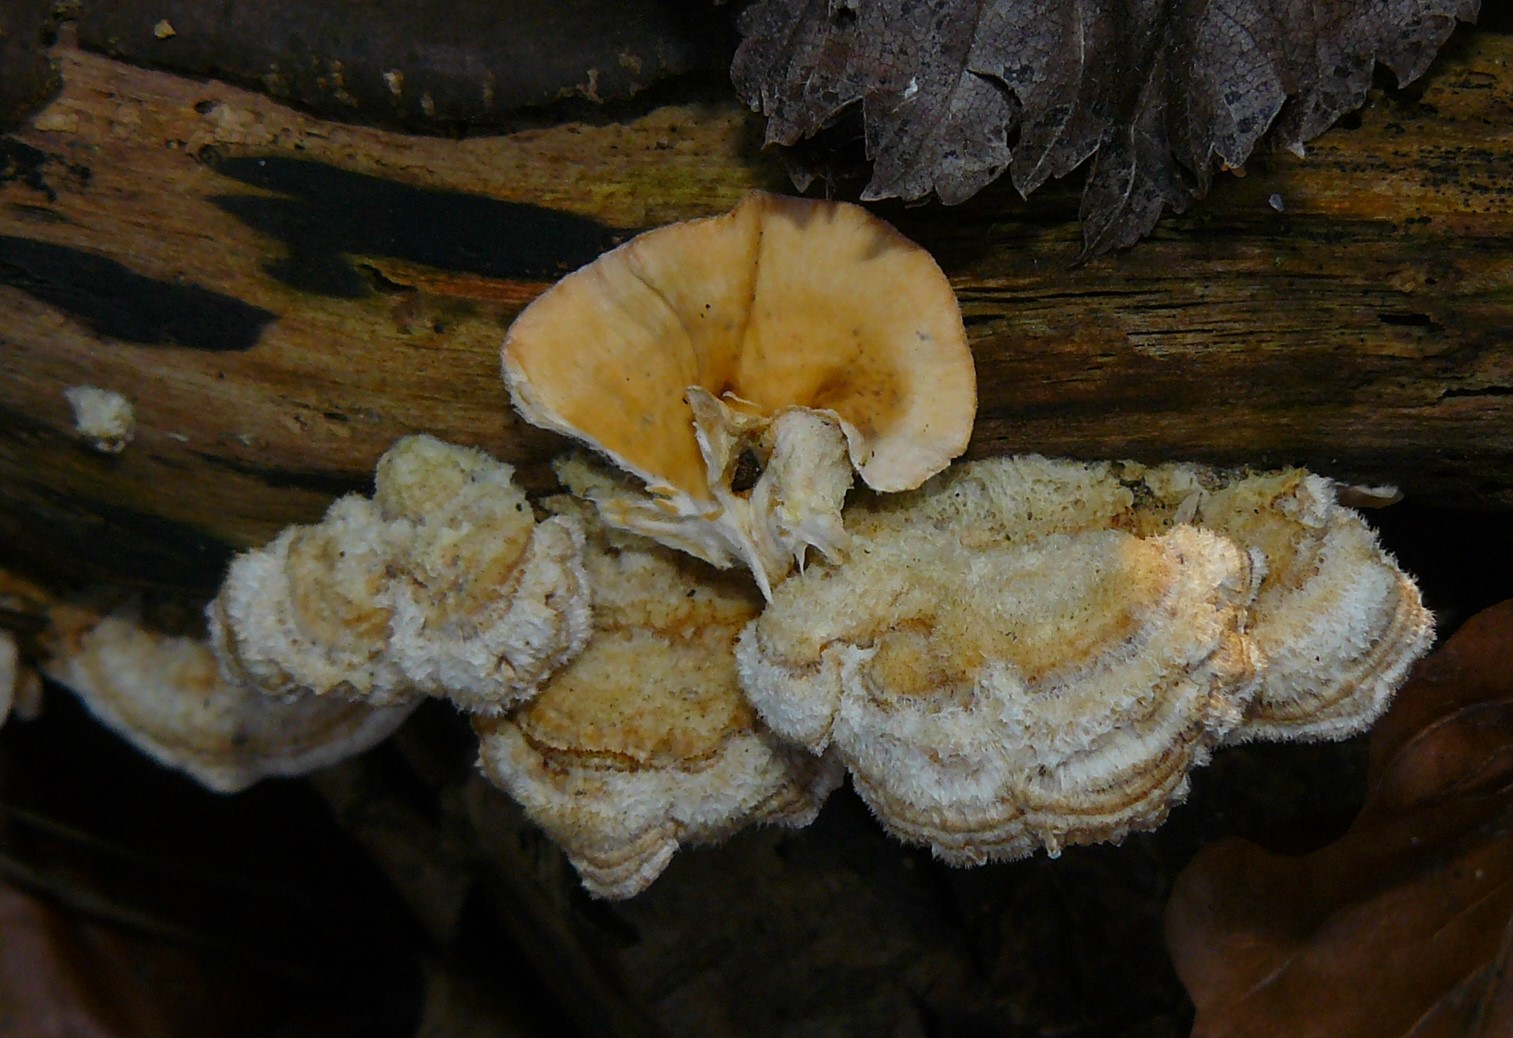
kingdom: Fungi
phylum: Basidiomycota
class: Agaricomycetes
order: Russulales
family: Stereaceae
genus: Stereum
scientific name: Stereum hirsutum
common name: håret lædersvamp
